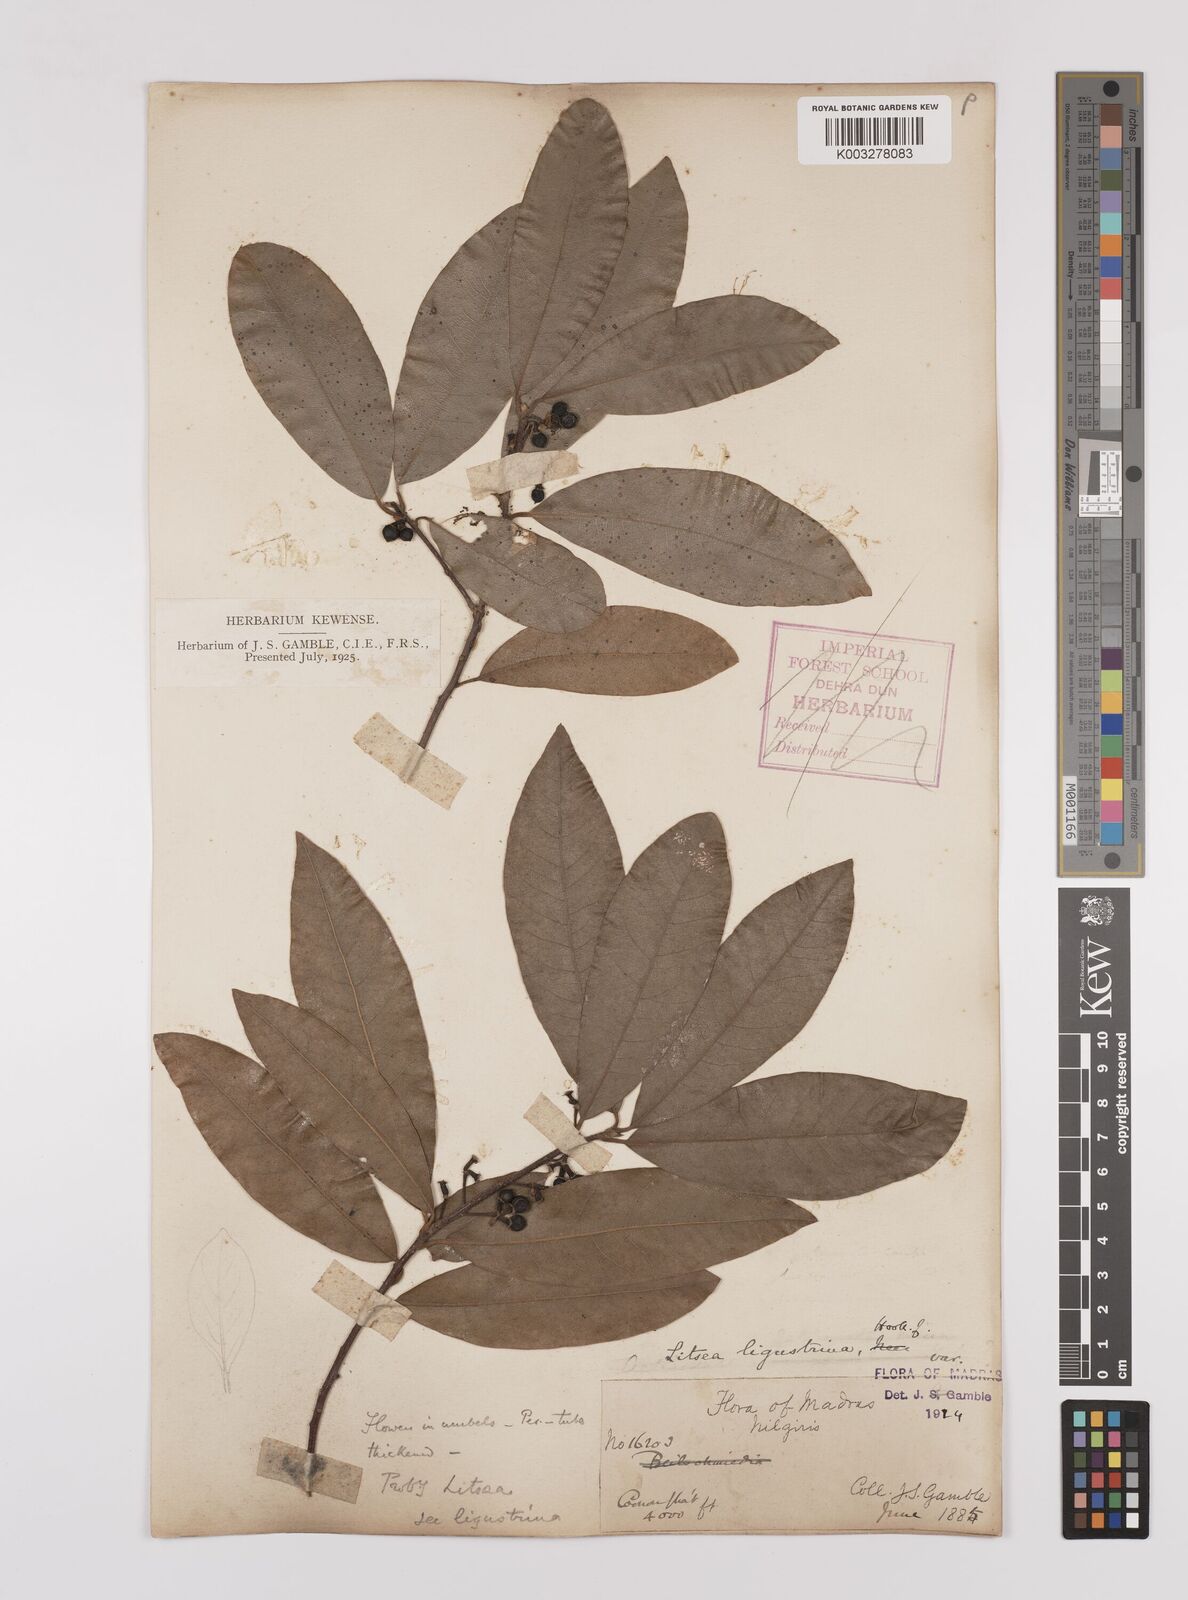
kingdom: Plantae
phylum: Tracheophyta
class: Magnoliopsida
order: Laurales
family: Lauraceae
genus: Litsea
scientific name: Litsea ligustrina
